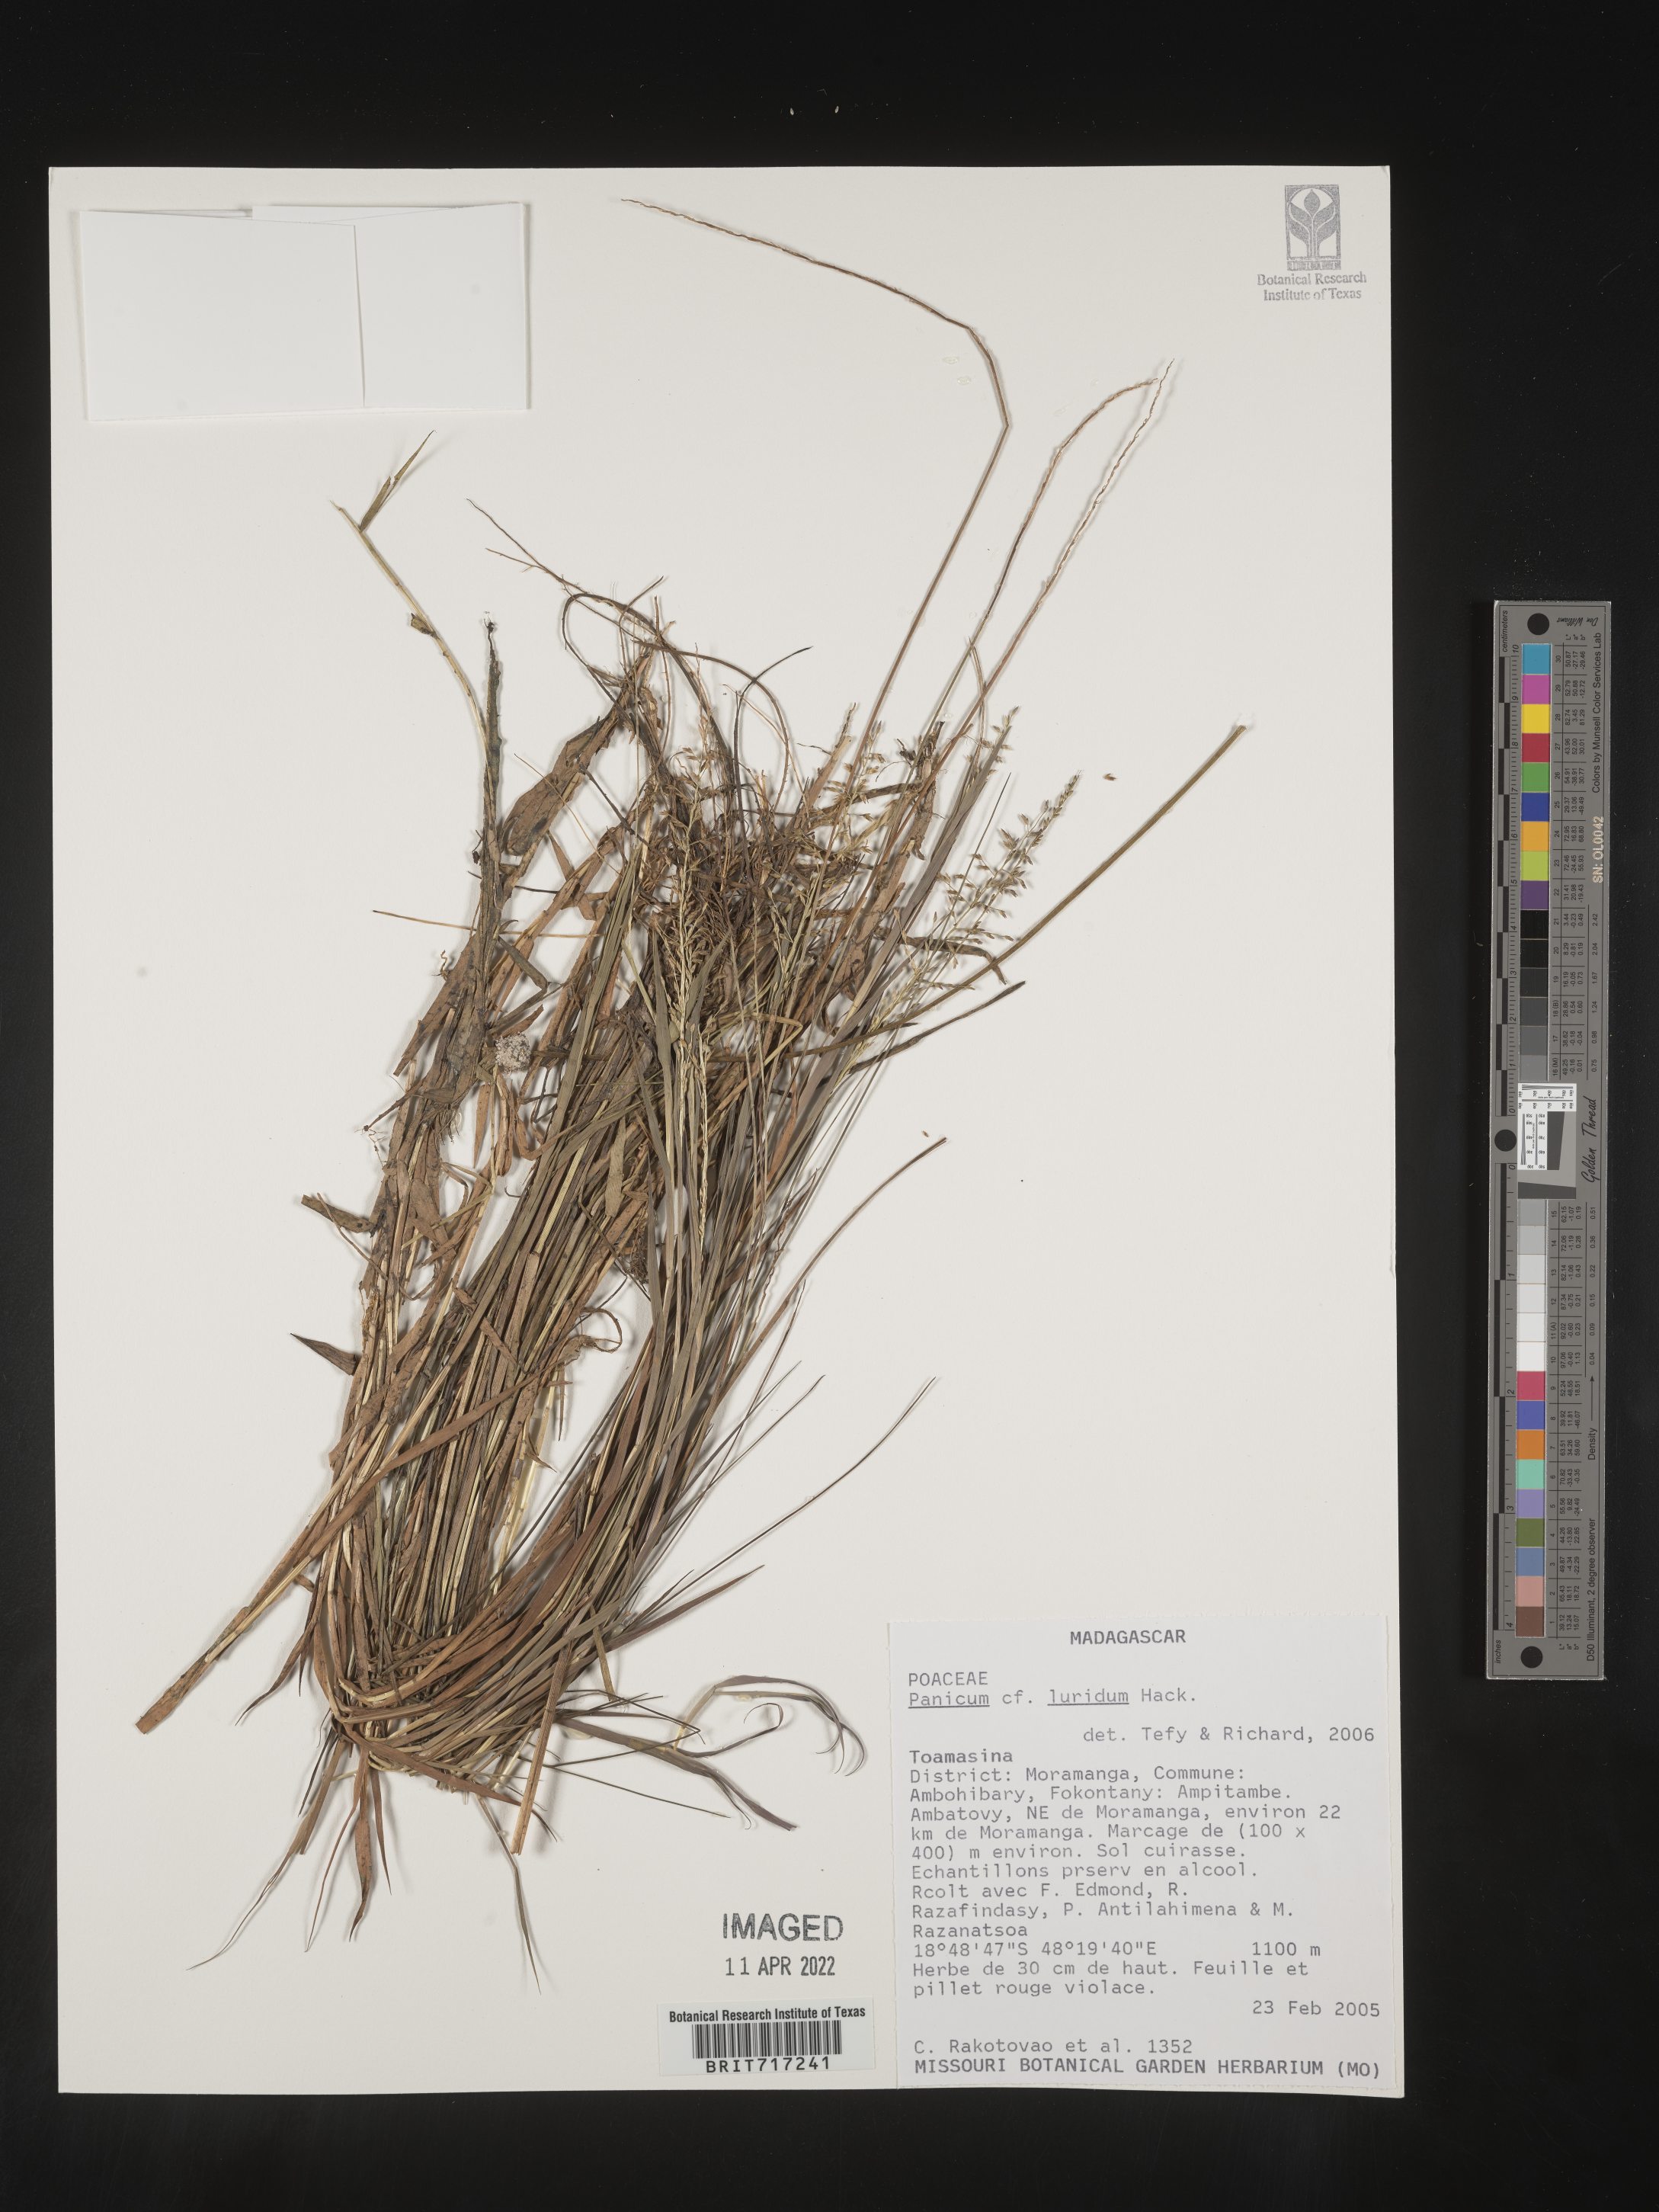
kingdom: Plantae
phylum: Tracheophyta
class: Liliopsida
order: Poales
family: Poaceae
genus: Panicum
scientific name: Panicum
